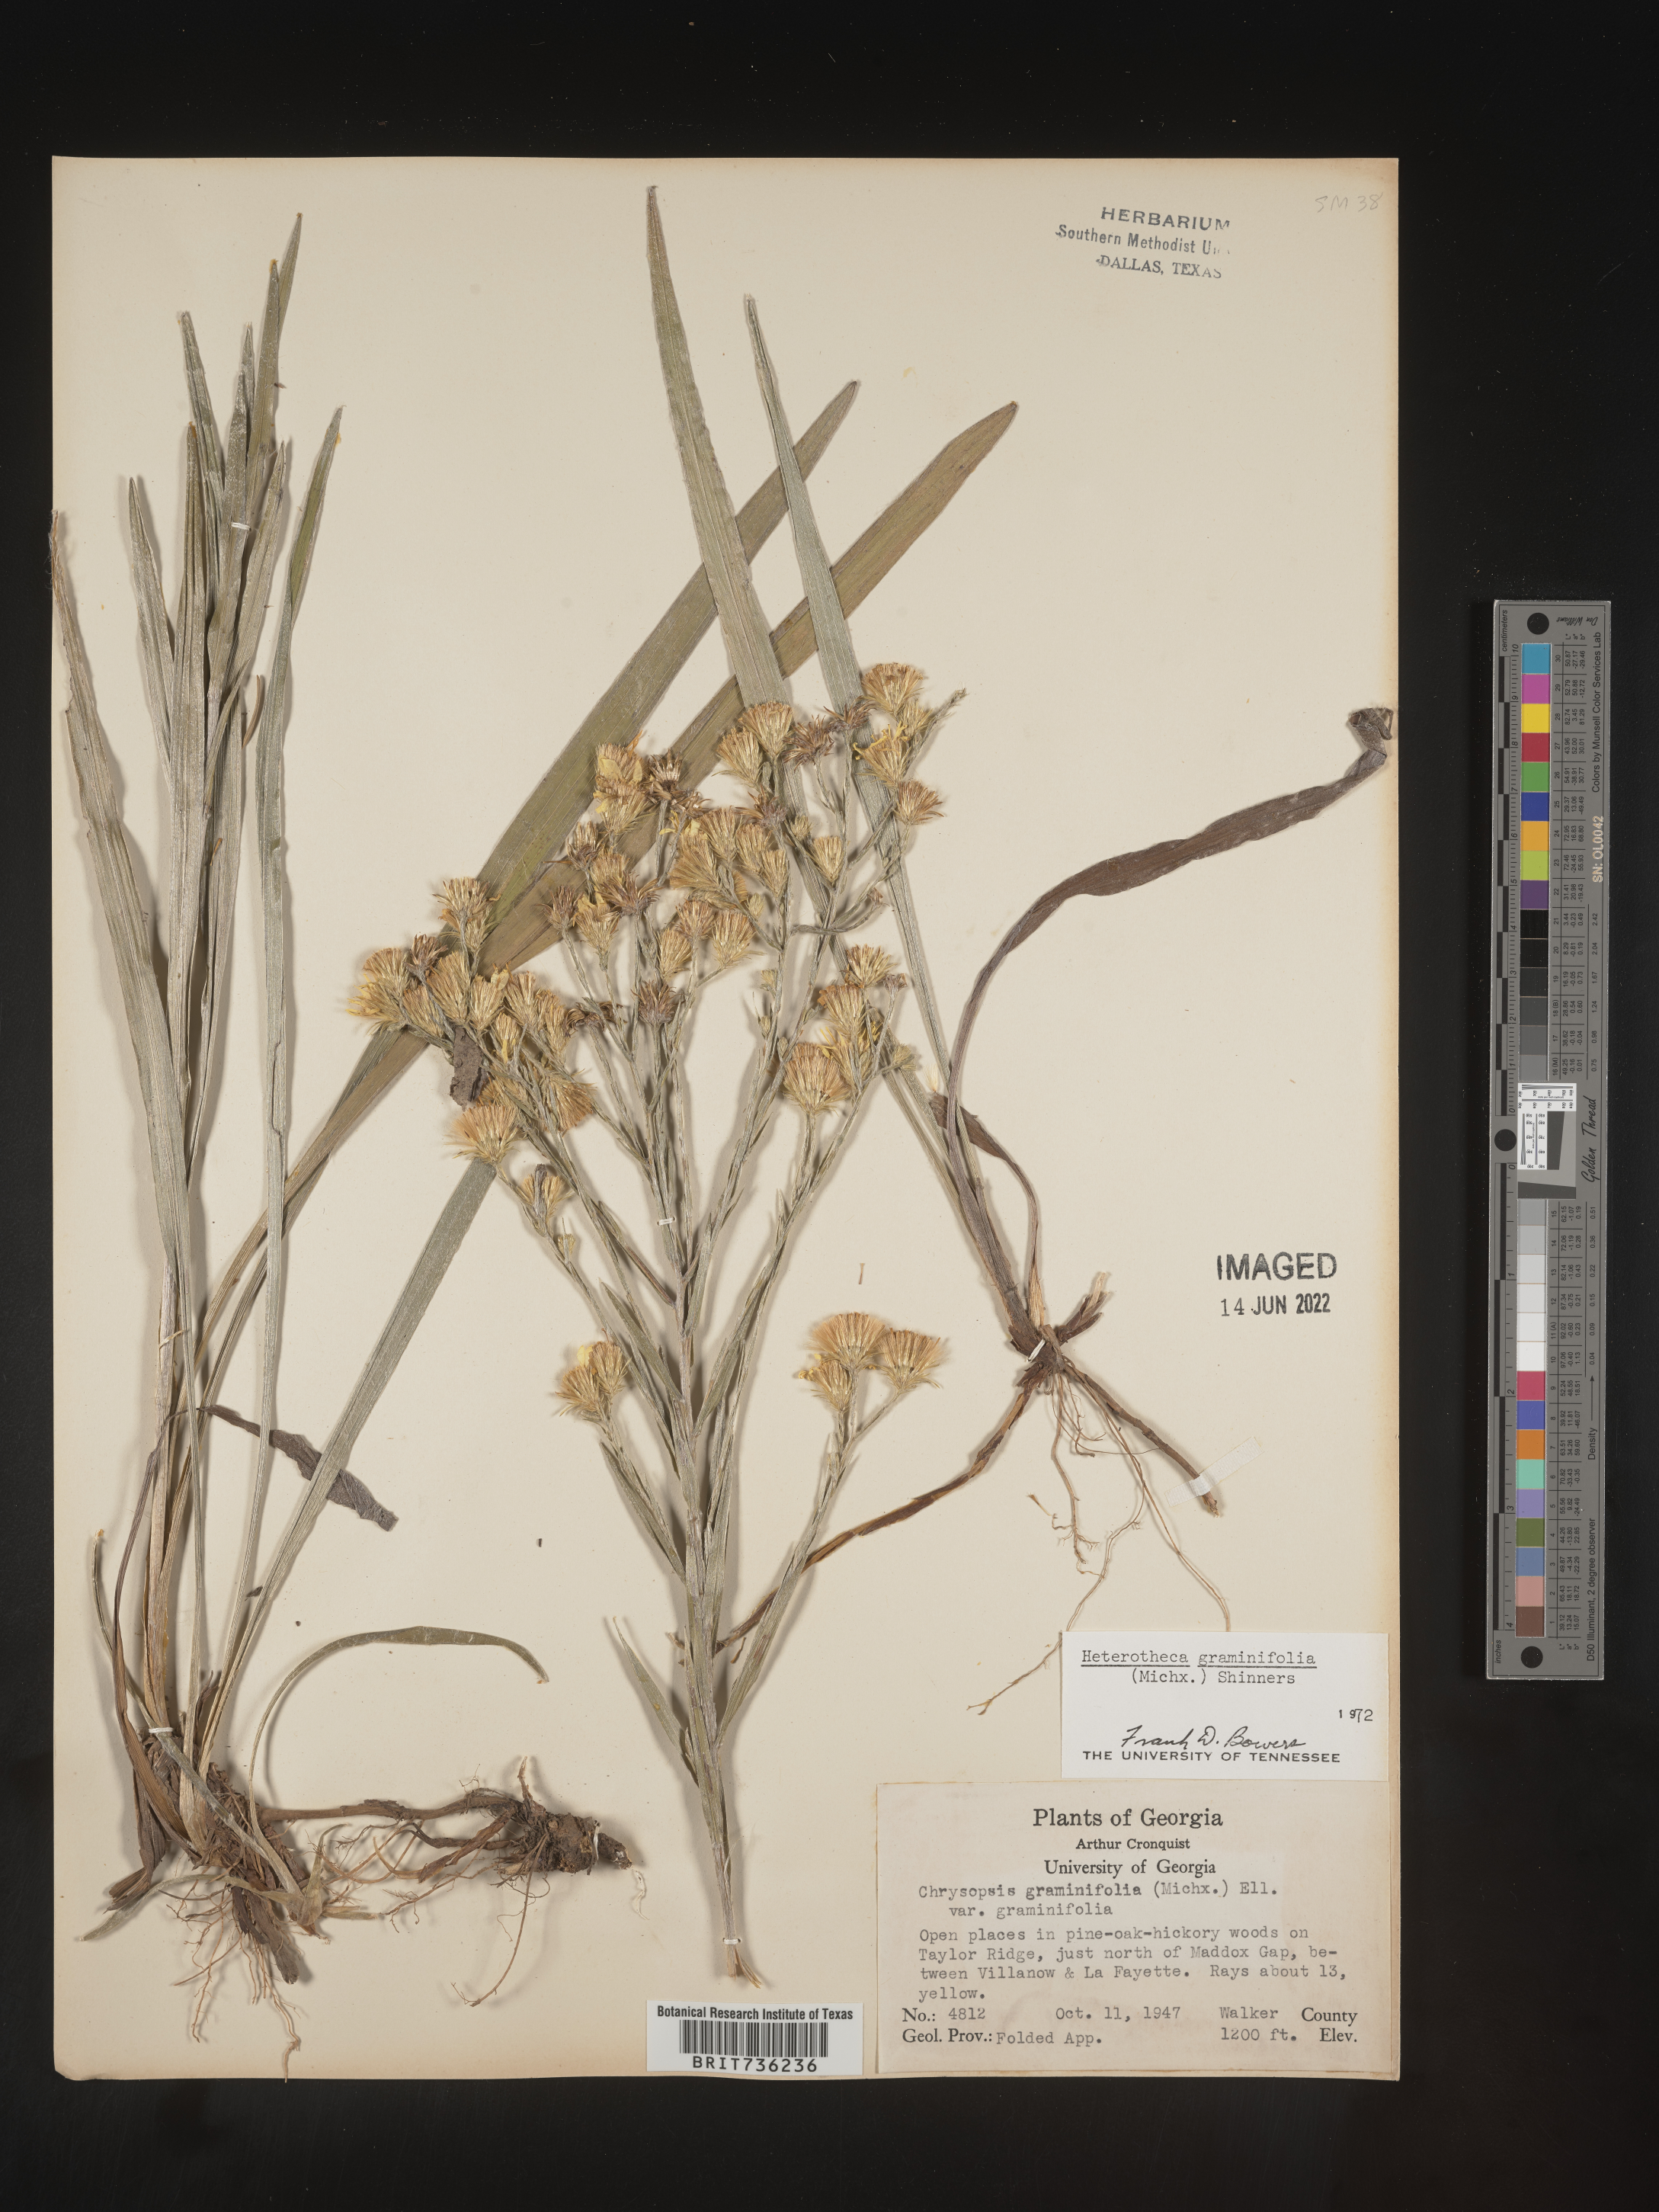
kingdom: Plantae
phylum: Tracheophyta
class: Magnoliopsida
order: Asterales
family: Asteraceae
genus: Pityopsis
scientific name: Pityopsis graminifolia
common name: Grass-leaf golden-aster
